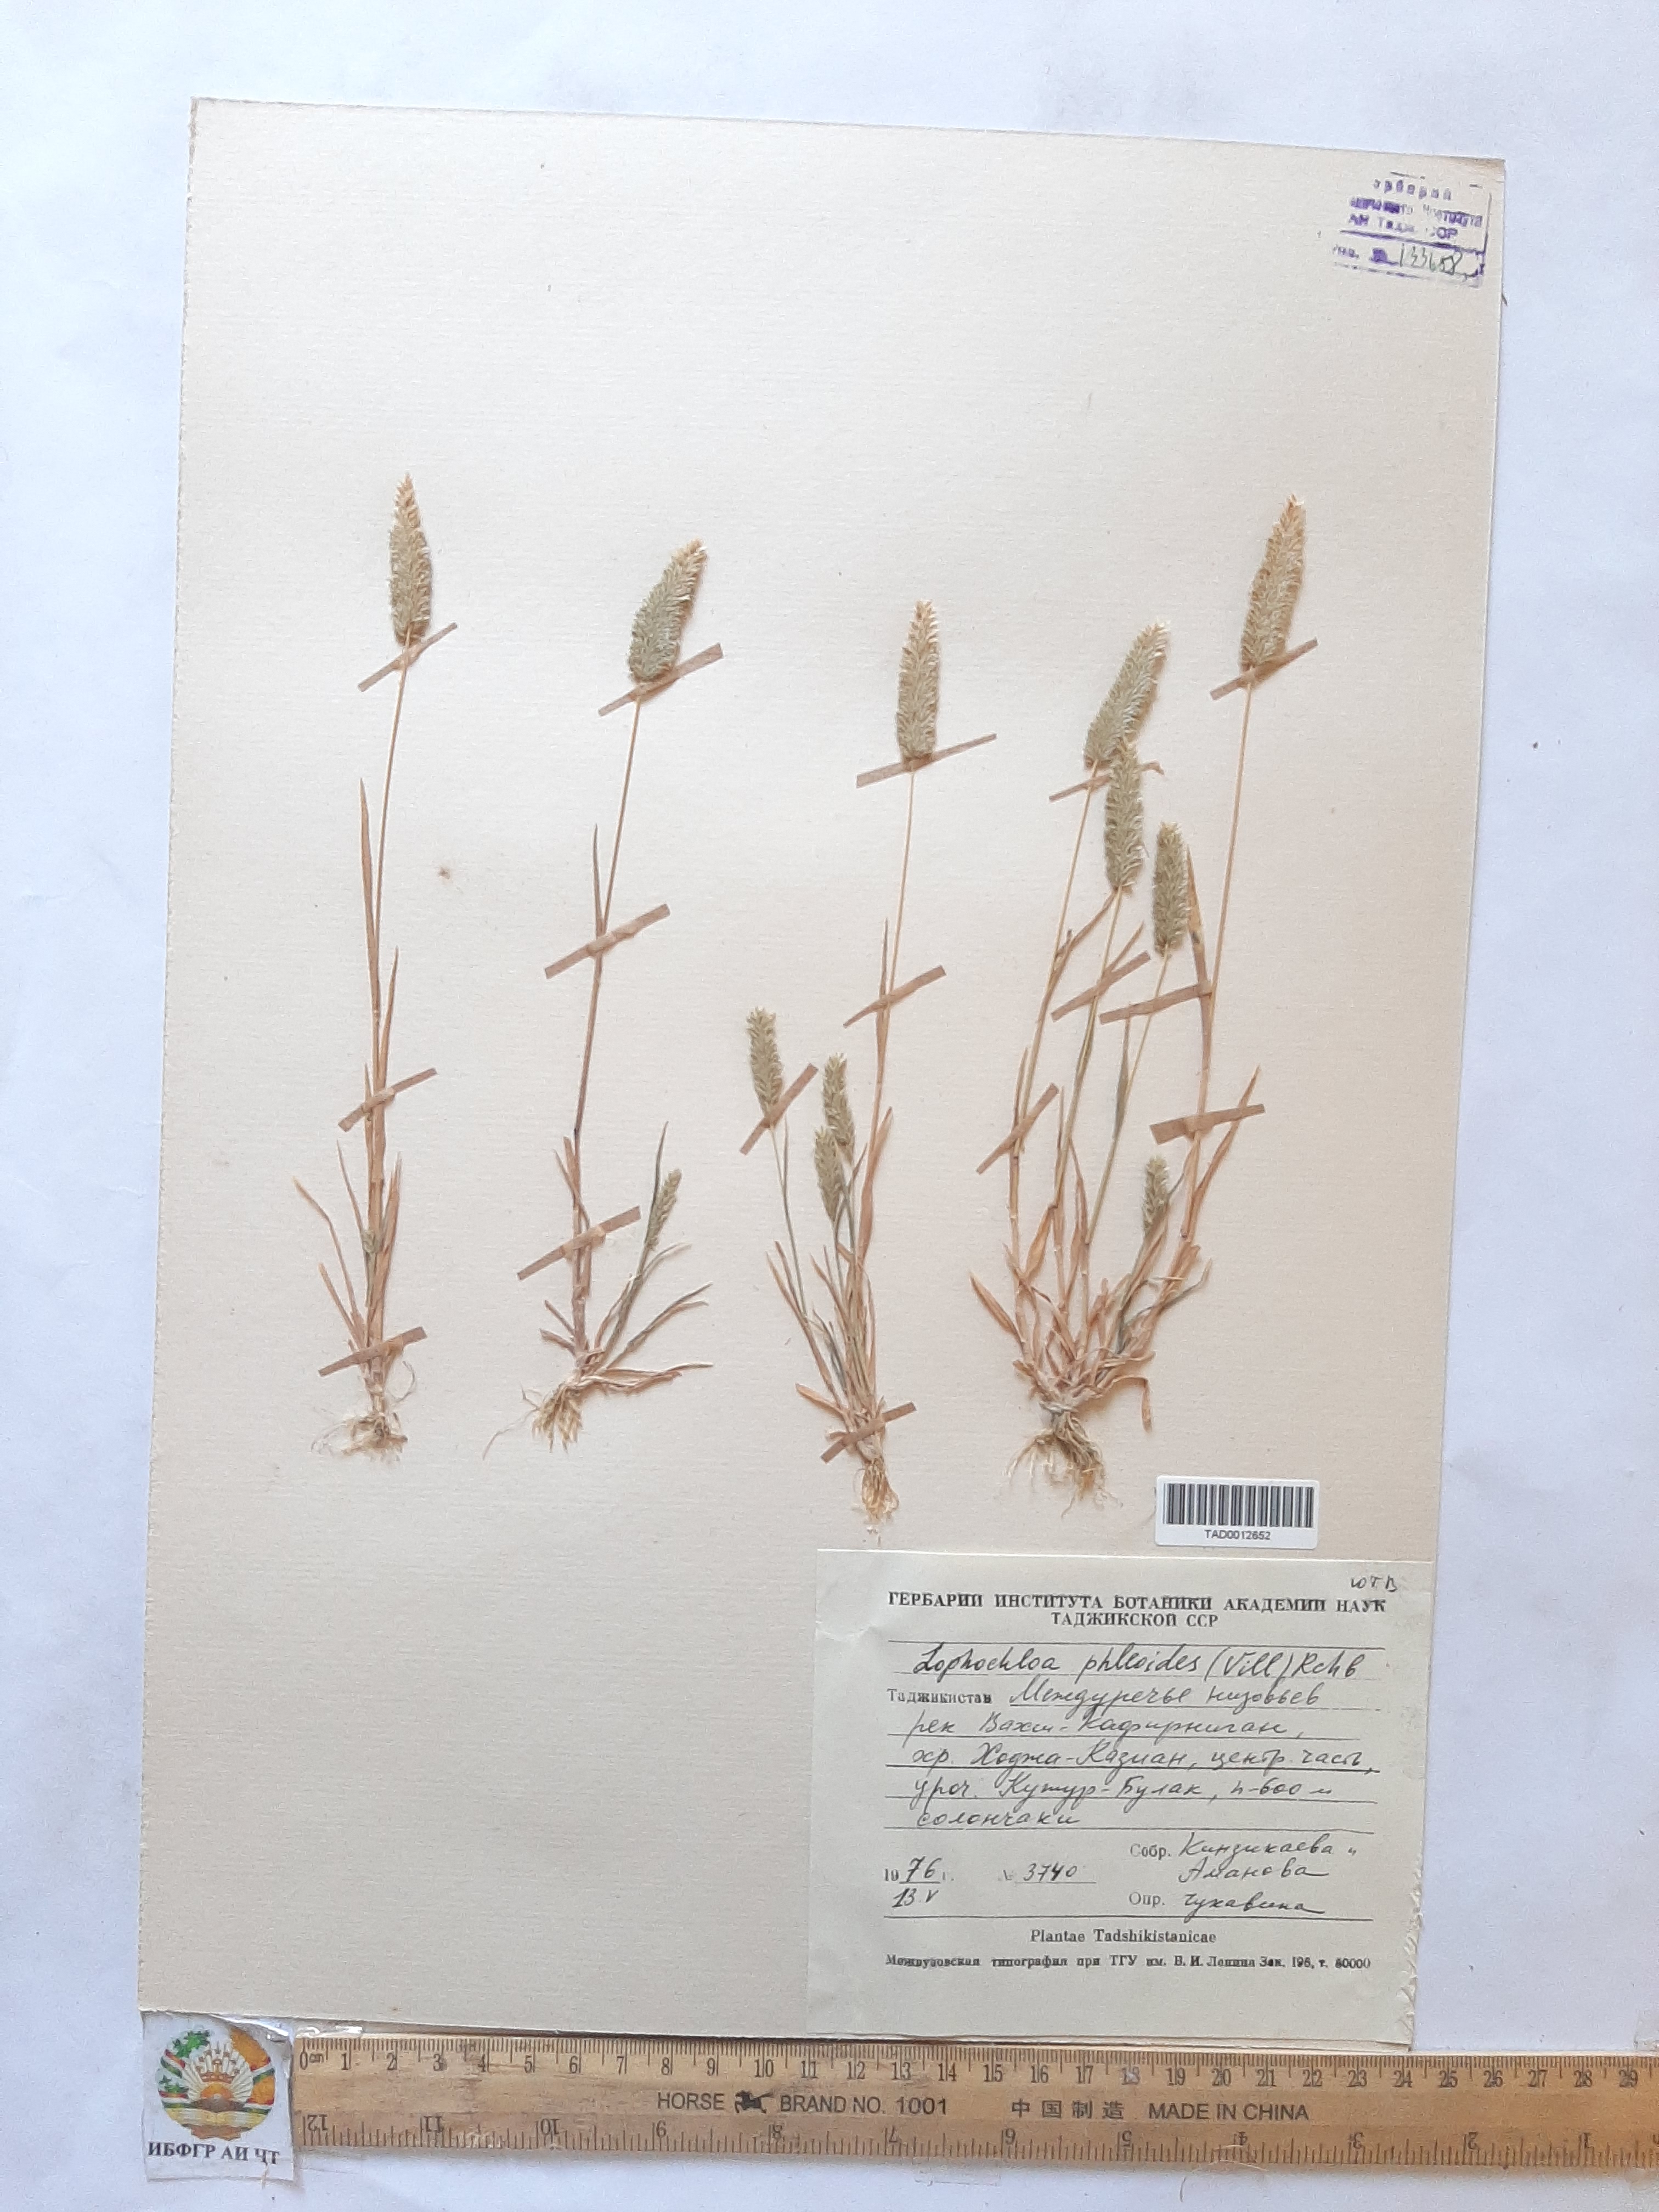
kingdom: Plantae
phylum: Tracheophyta
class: Liliopsida
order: Poales
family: Poaceae
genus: Rostraria
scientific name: Rostraria cristata
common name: Mediterranean hair-grass
